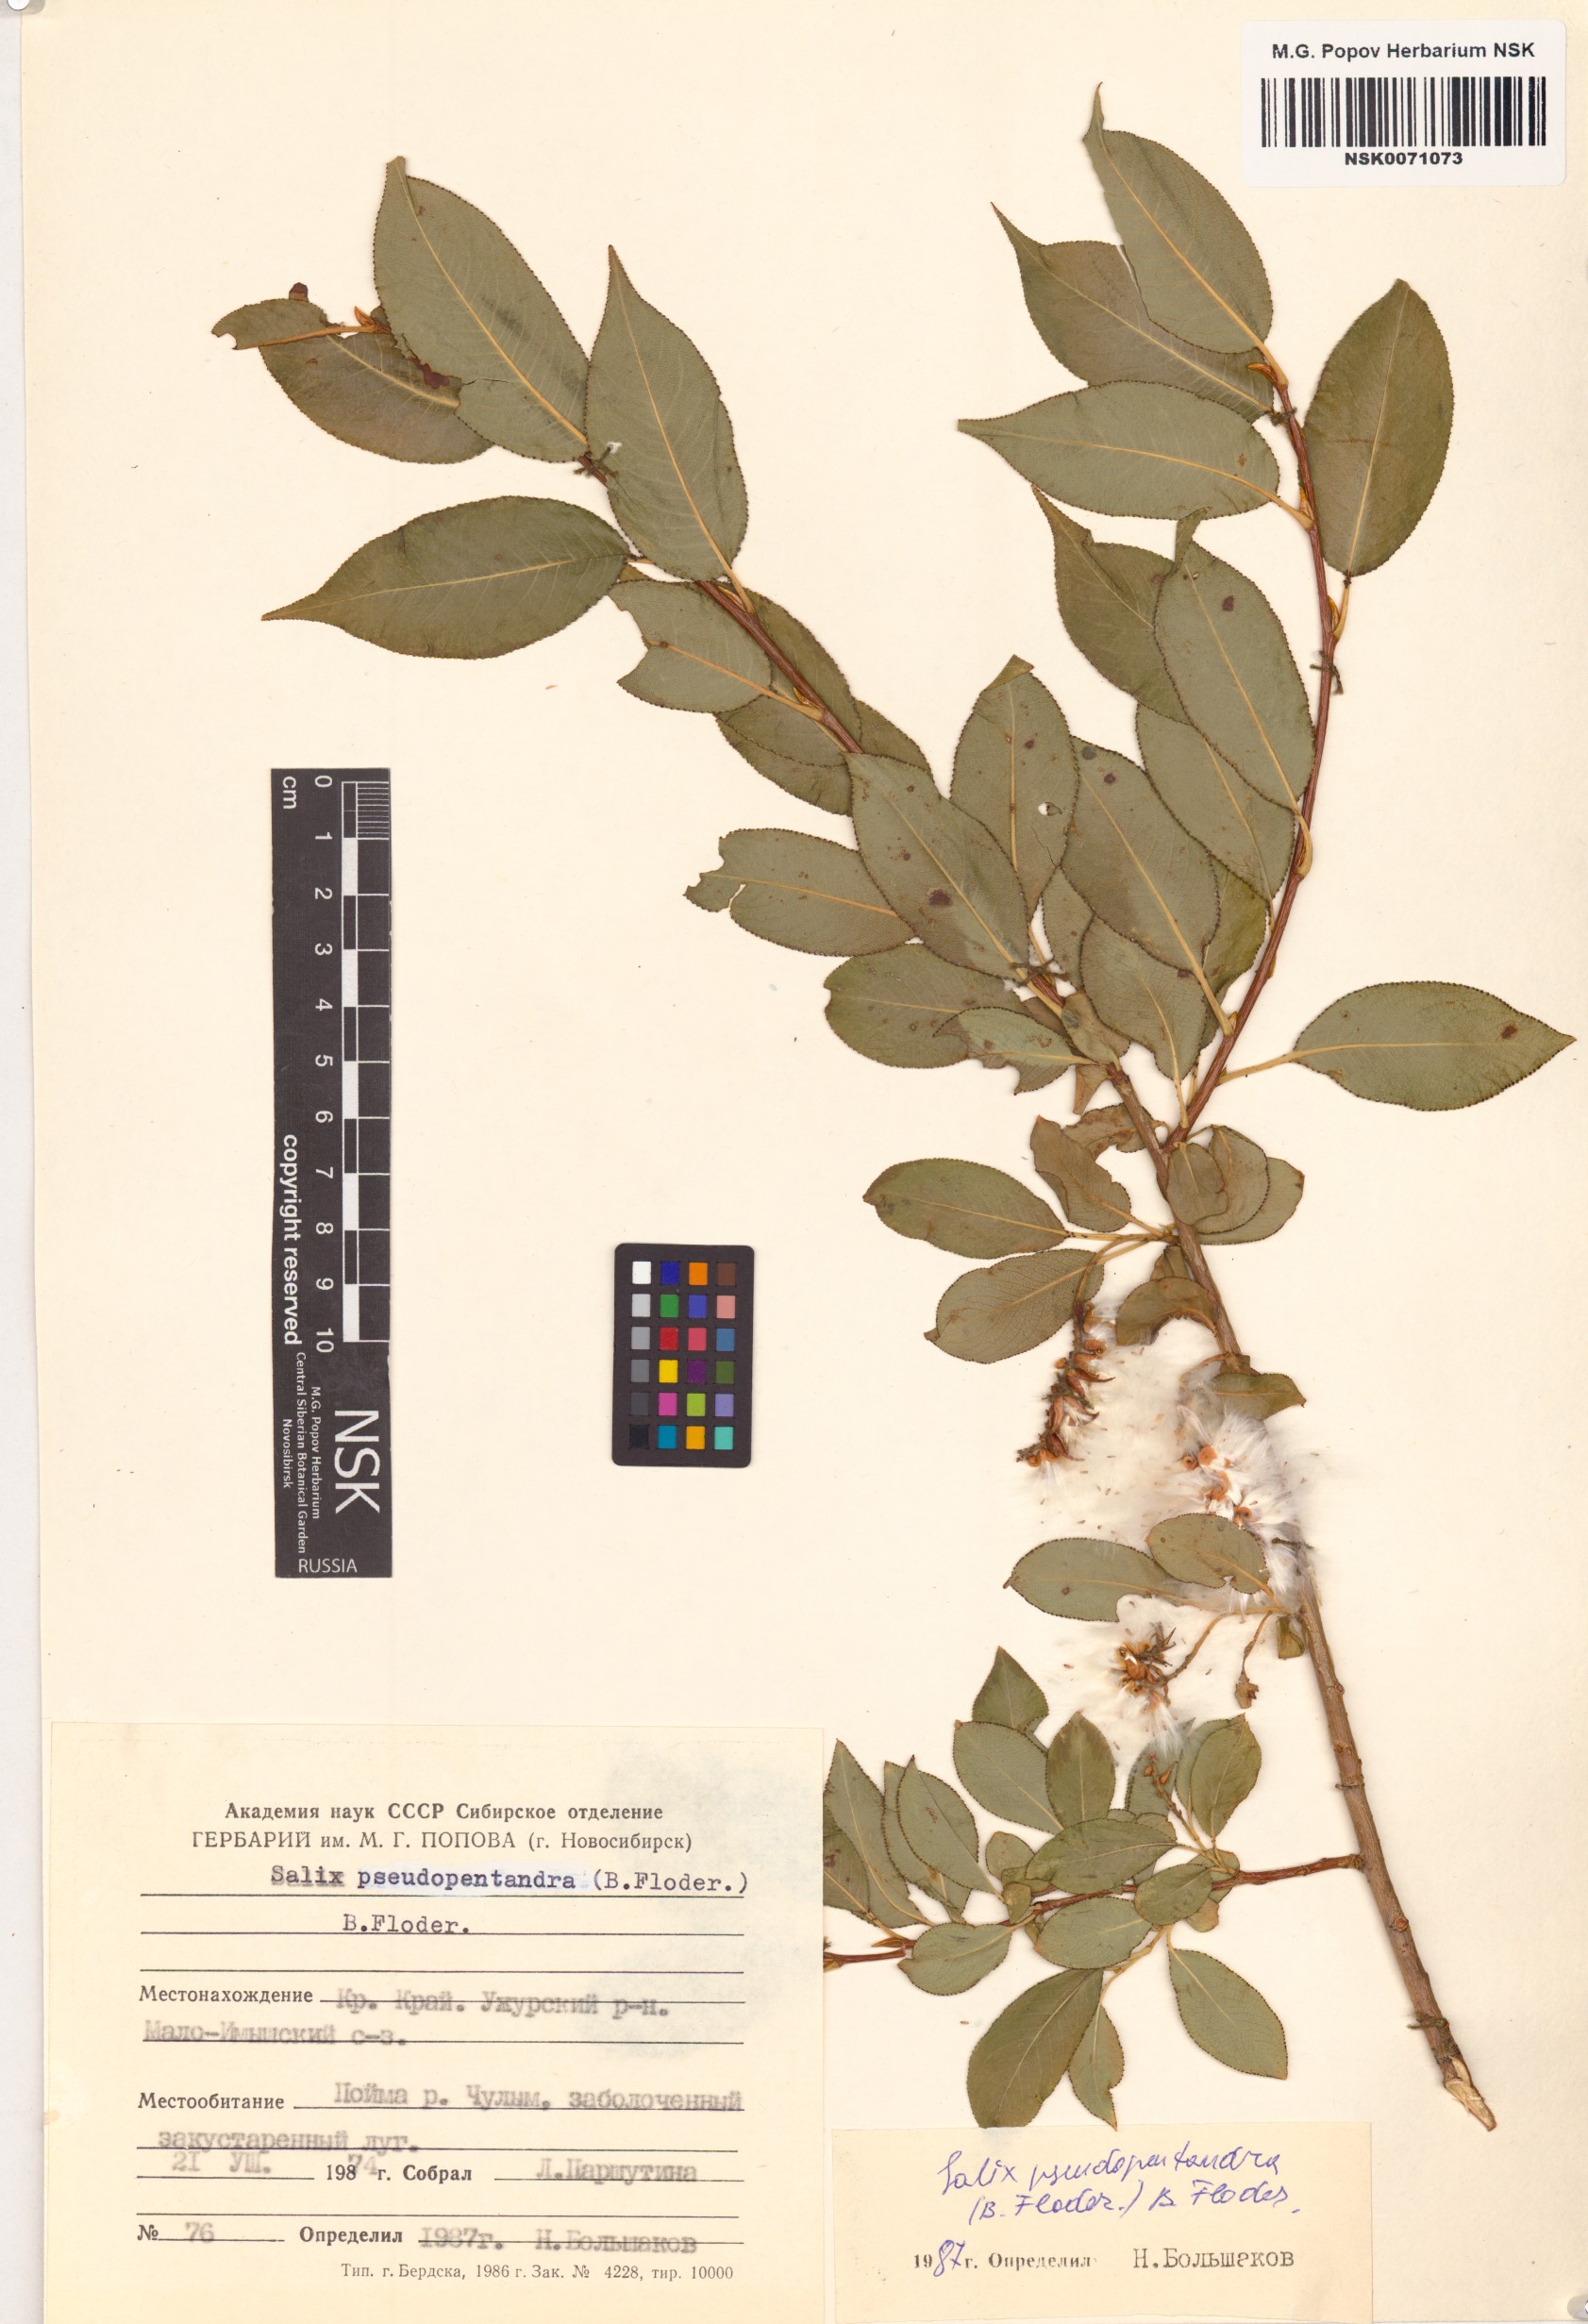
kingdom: Plantae
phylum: Tracheophyta
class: Magnoliopsida
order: Malpighiales
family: Salicaceae
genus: Salix
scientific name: Salix pseudopentandra
